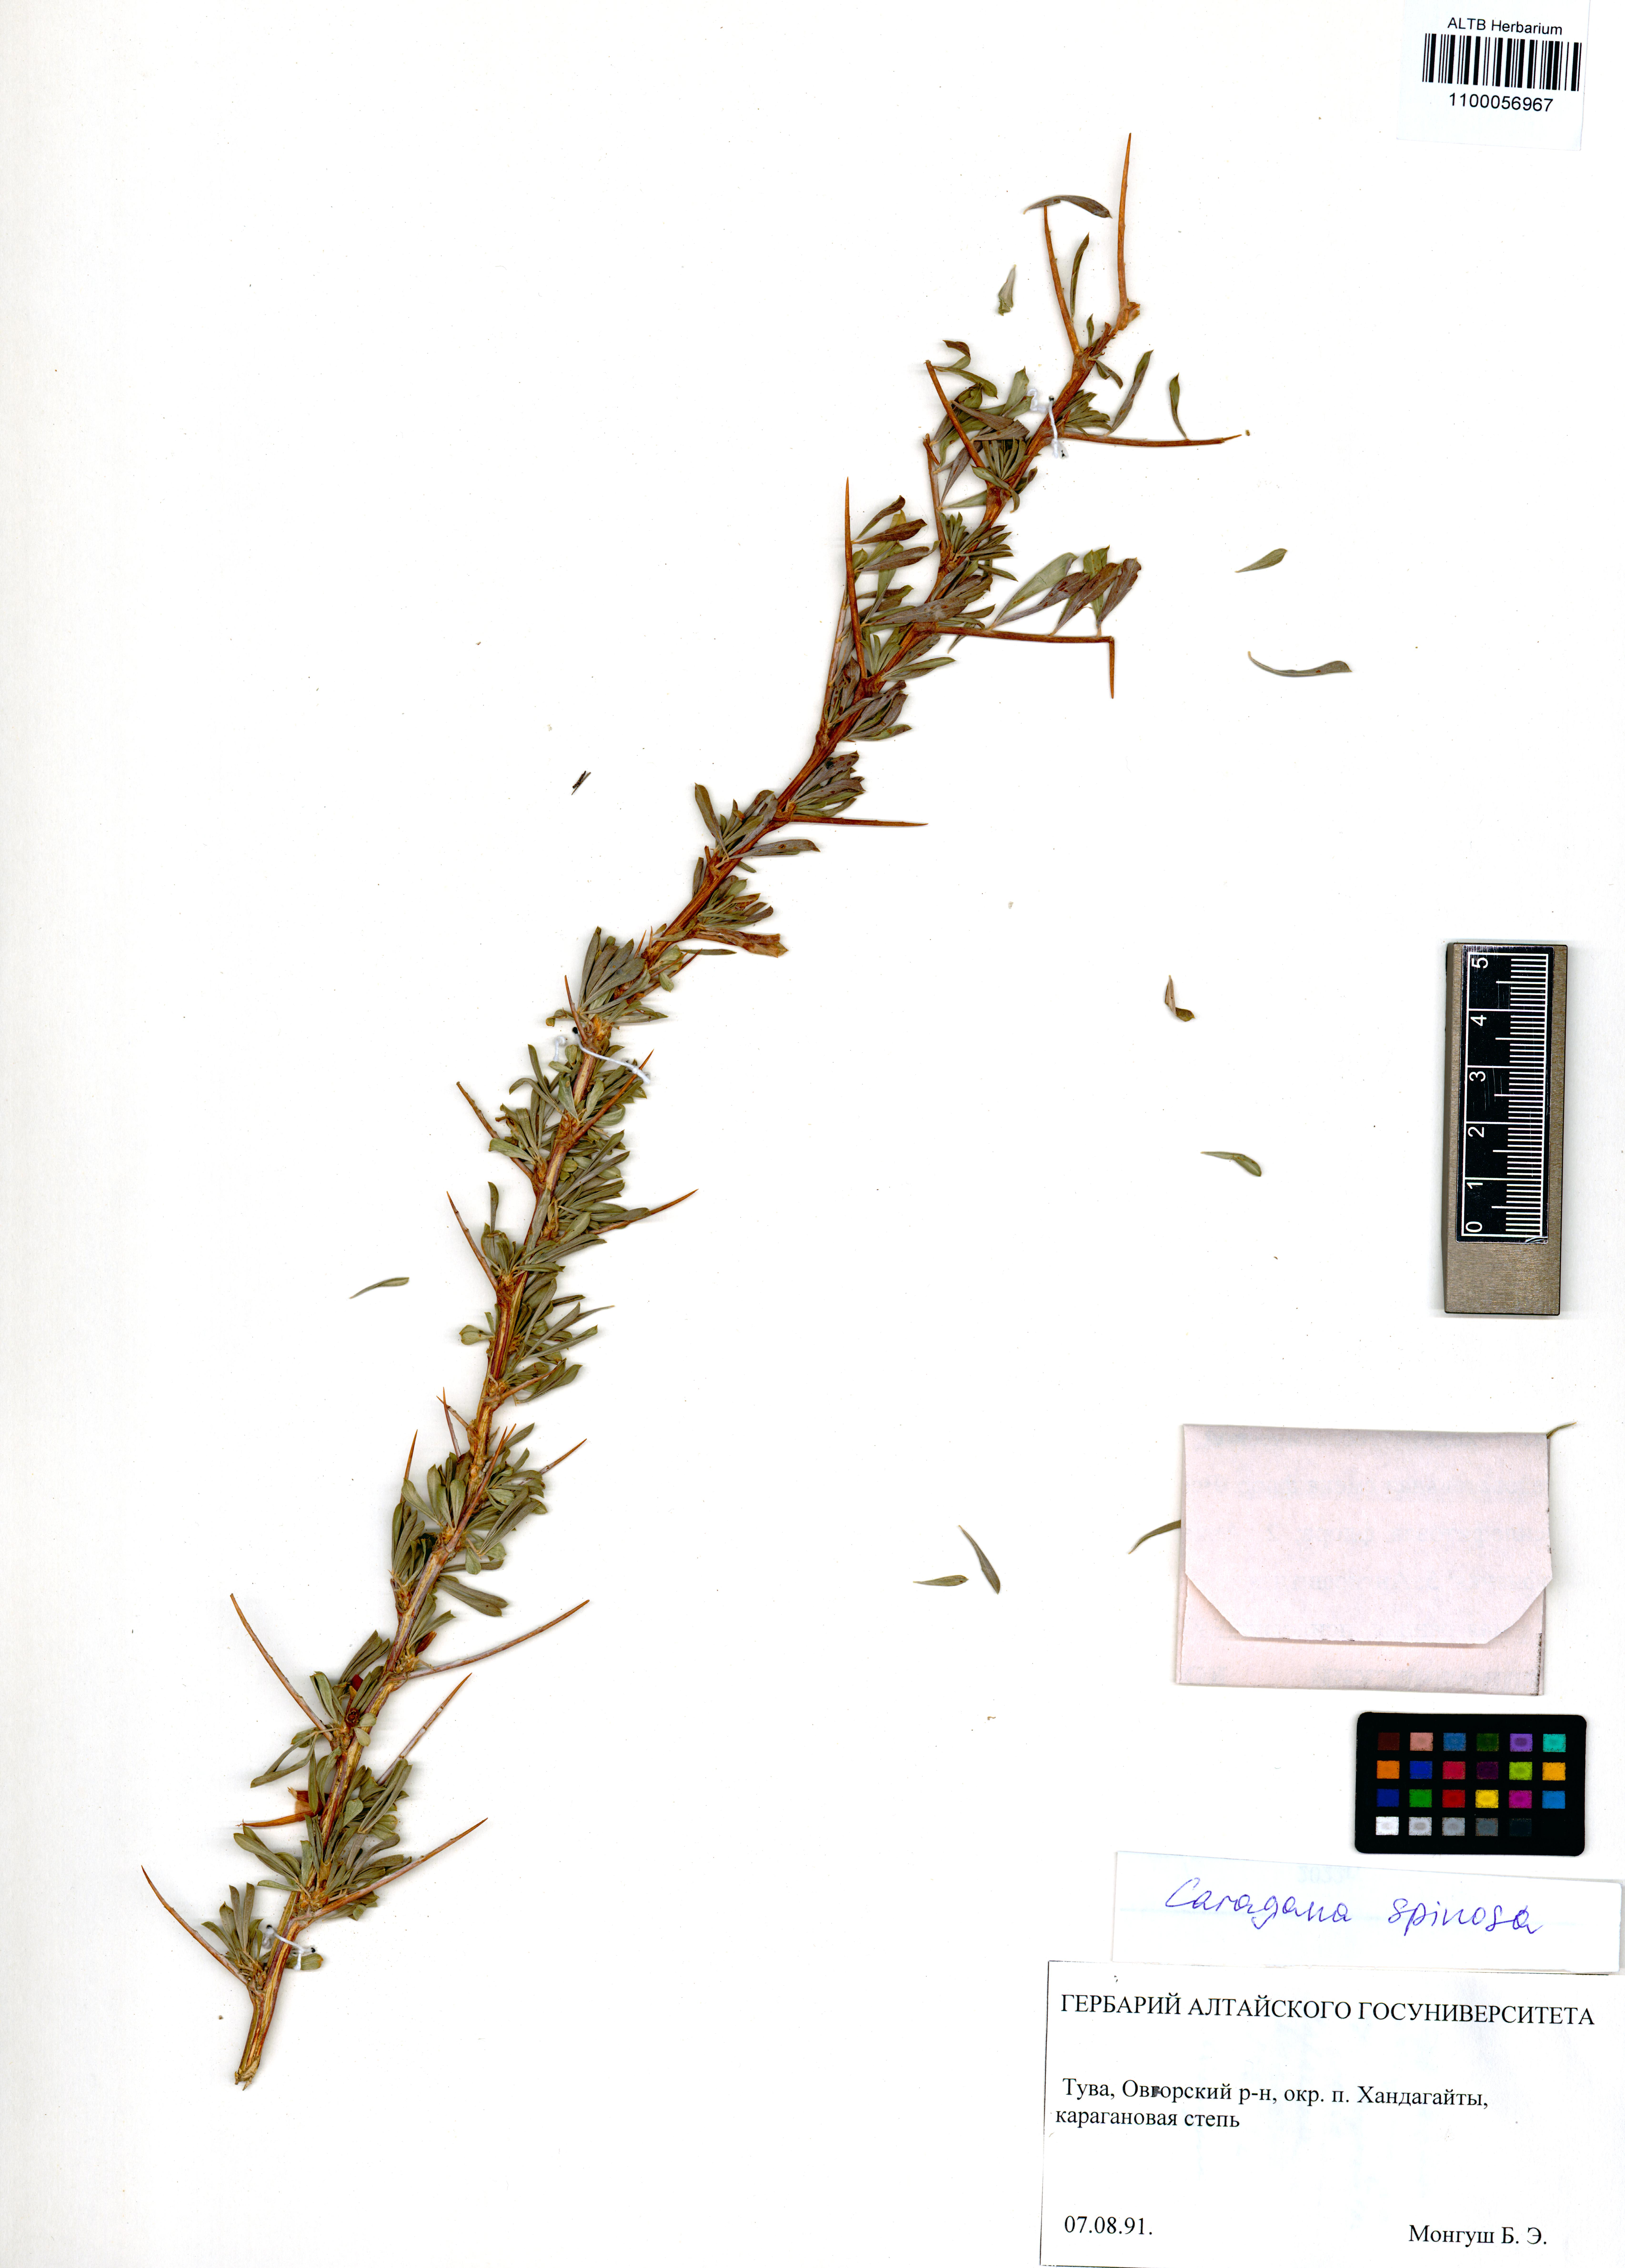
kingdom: Plantae
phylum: Tracheophyta
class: Magnoliopsida
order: Fabales
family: Fabaceae
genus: Caragana
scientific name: Caragana spinosa
